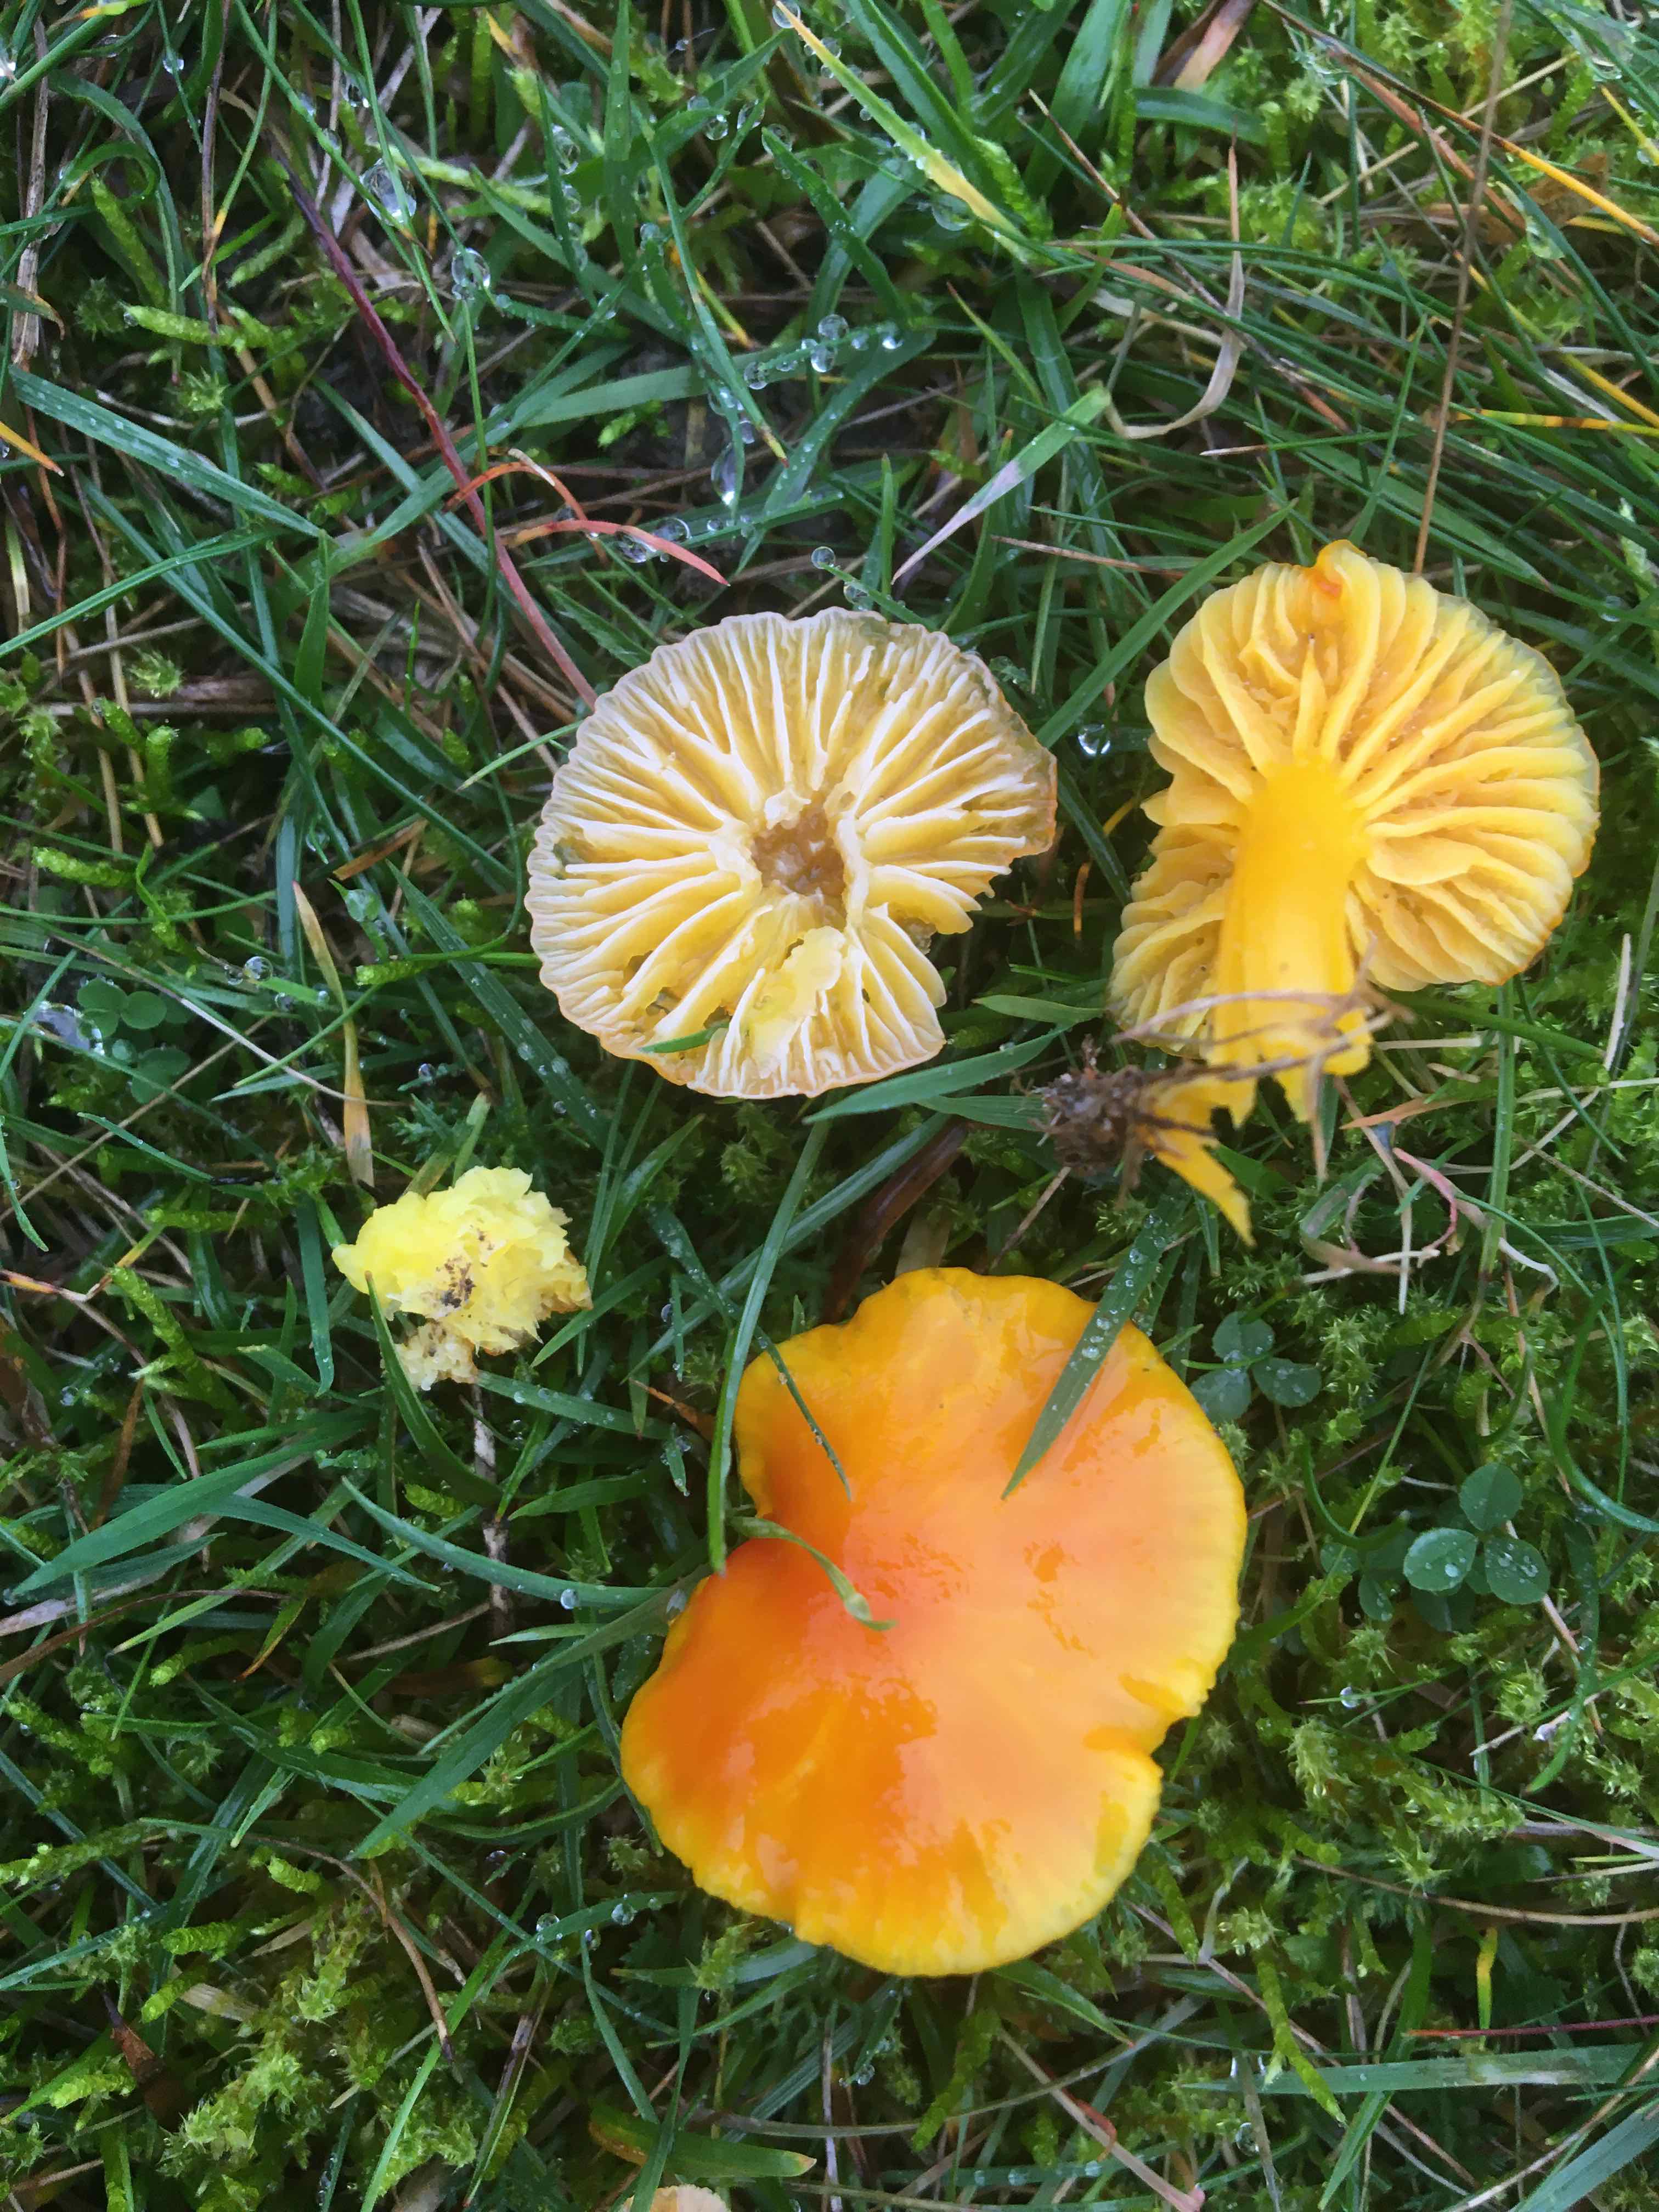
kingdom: Fungi
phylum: Basidiomycota
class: Agaricomycetes
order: Agaricales
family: Hygrophoraceae
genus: Hygrocybe
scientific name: Hygrocybe ceracea
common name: voksgul vokshat
